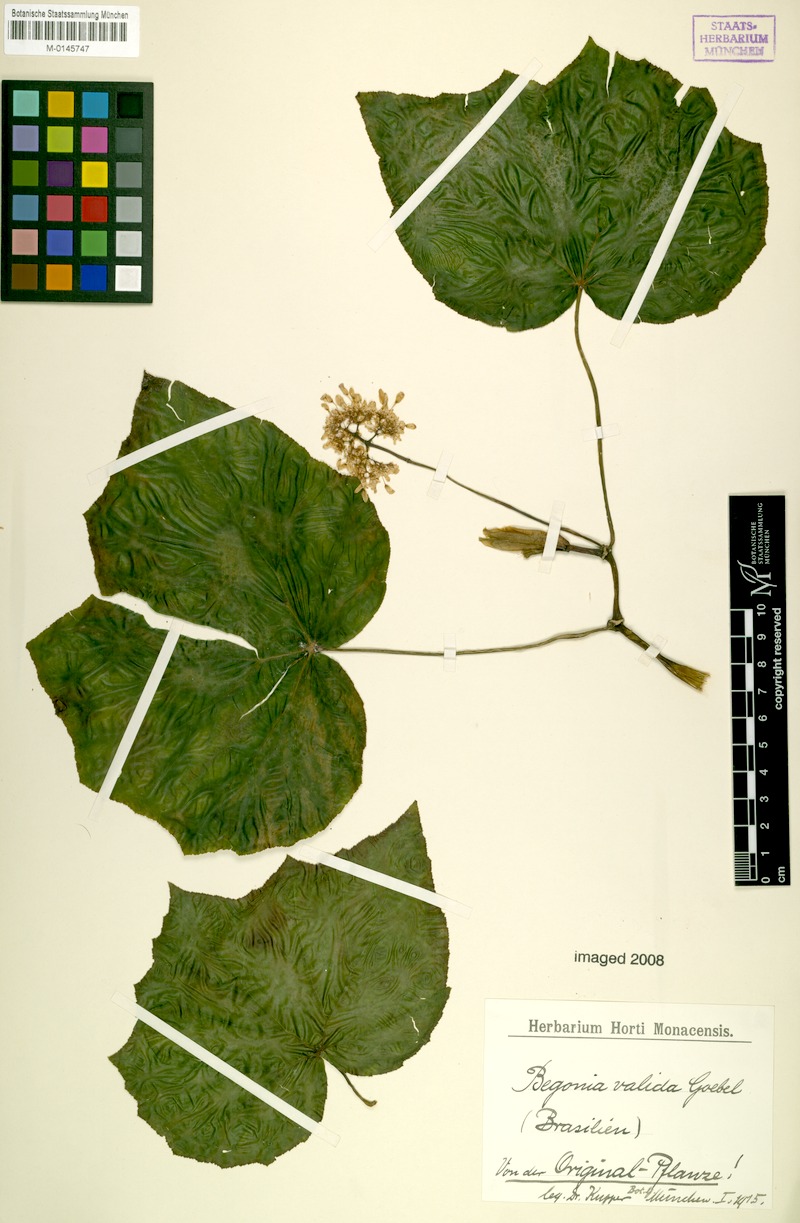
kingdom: Plantae
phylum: Tracheophyta
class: Magnoliopsida
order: Cucurbitales
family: Begoniaceae
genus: Begonia
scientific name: Begonia valida
